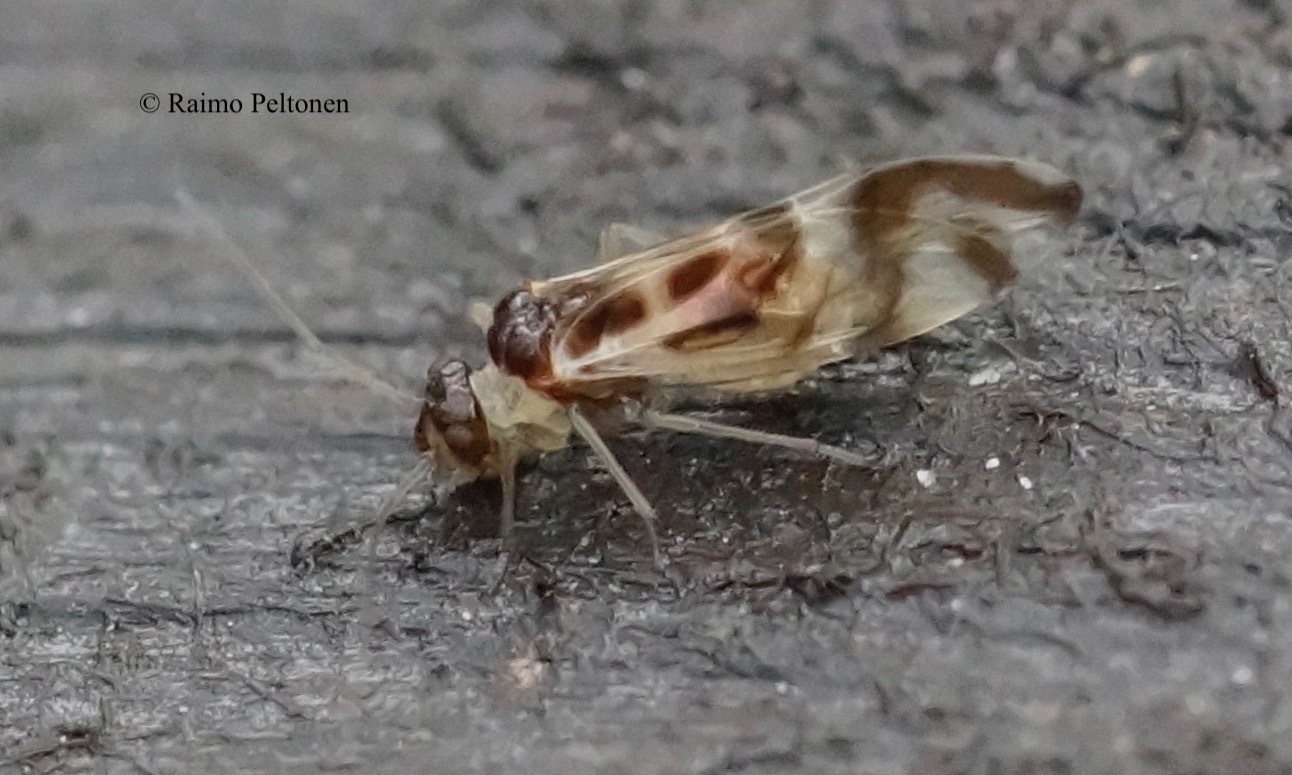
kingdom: Animalia
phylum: Arthropoda
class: Insecta
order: Psocodea
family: Stenopsocidae
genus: Graphopsocus
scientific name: Graphopsocus cruciatus
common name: Lizard bark louse
